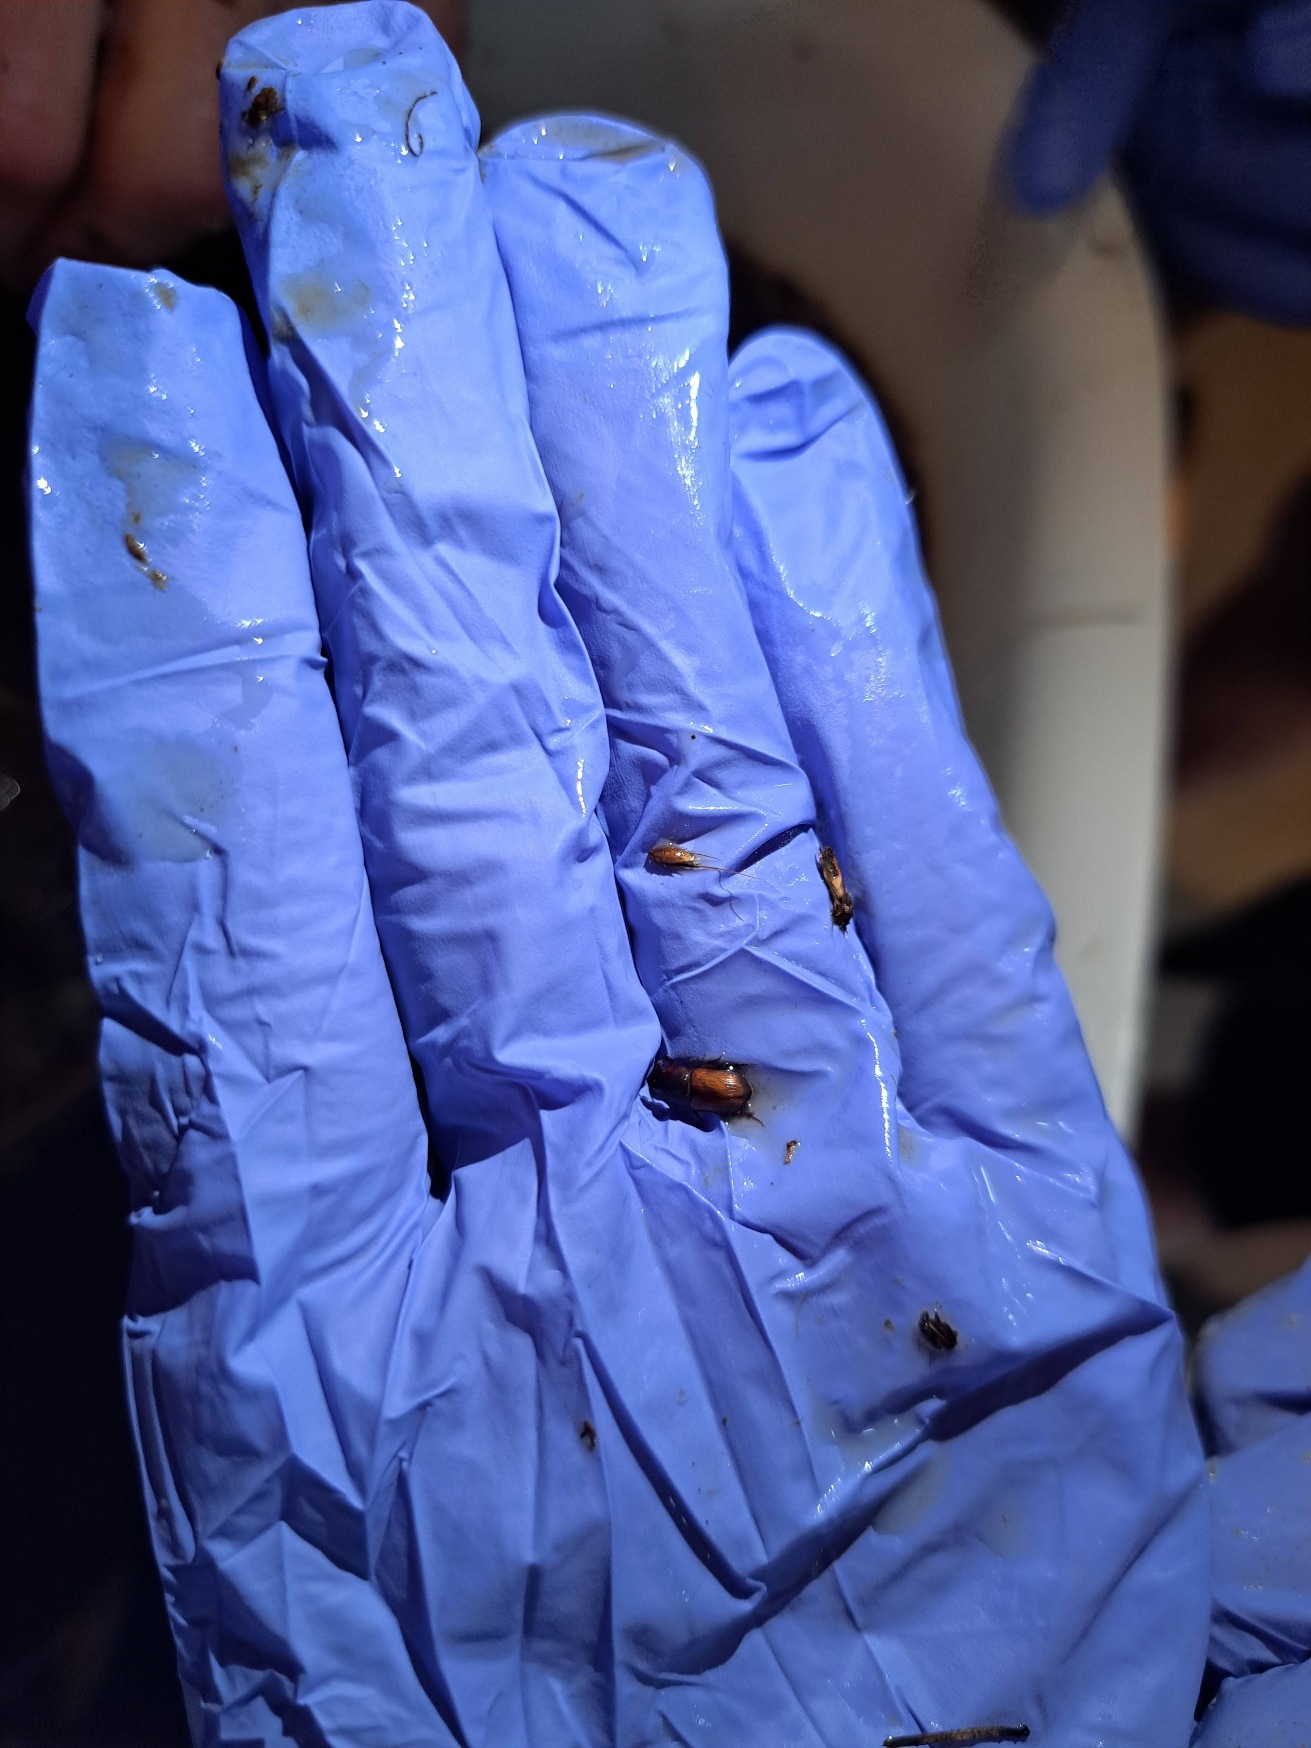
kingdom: Animalia
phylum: Arthropoda
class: Insecta
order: Coleoptera
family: Scarabaeidae
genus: Bodilopsis
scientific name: Bodilopsis rufus
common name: Mahognibrun møgbille
